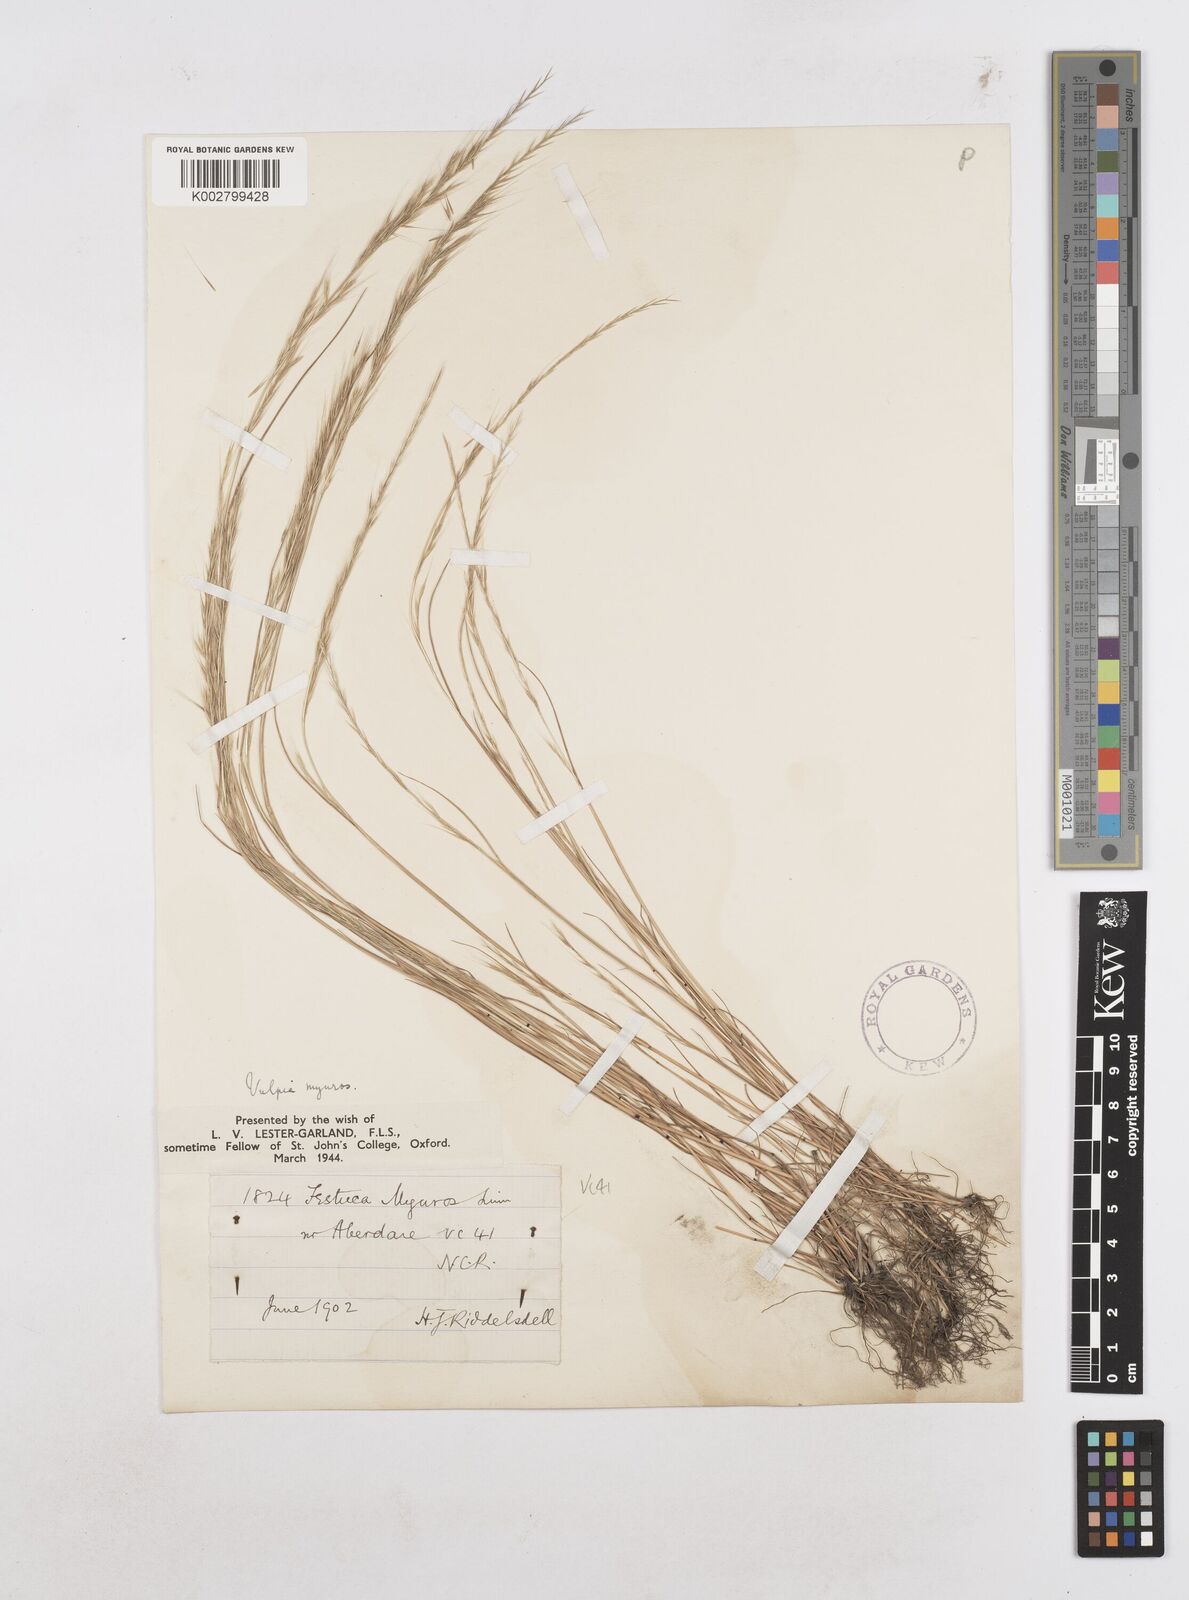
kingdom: Plantae
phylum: Tracheophyta
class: Liliopsida
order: Poales
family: Poaceae
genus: Festuca
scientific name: Festuca myuros
